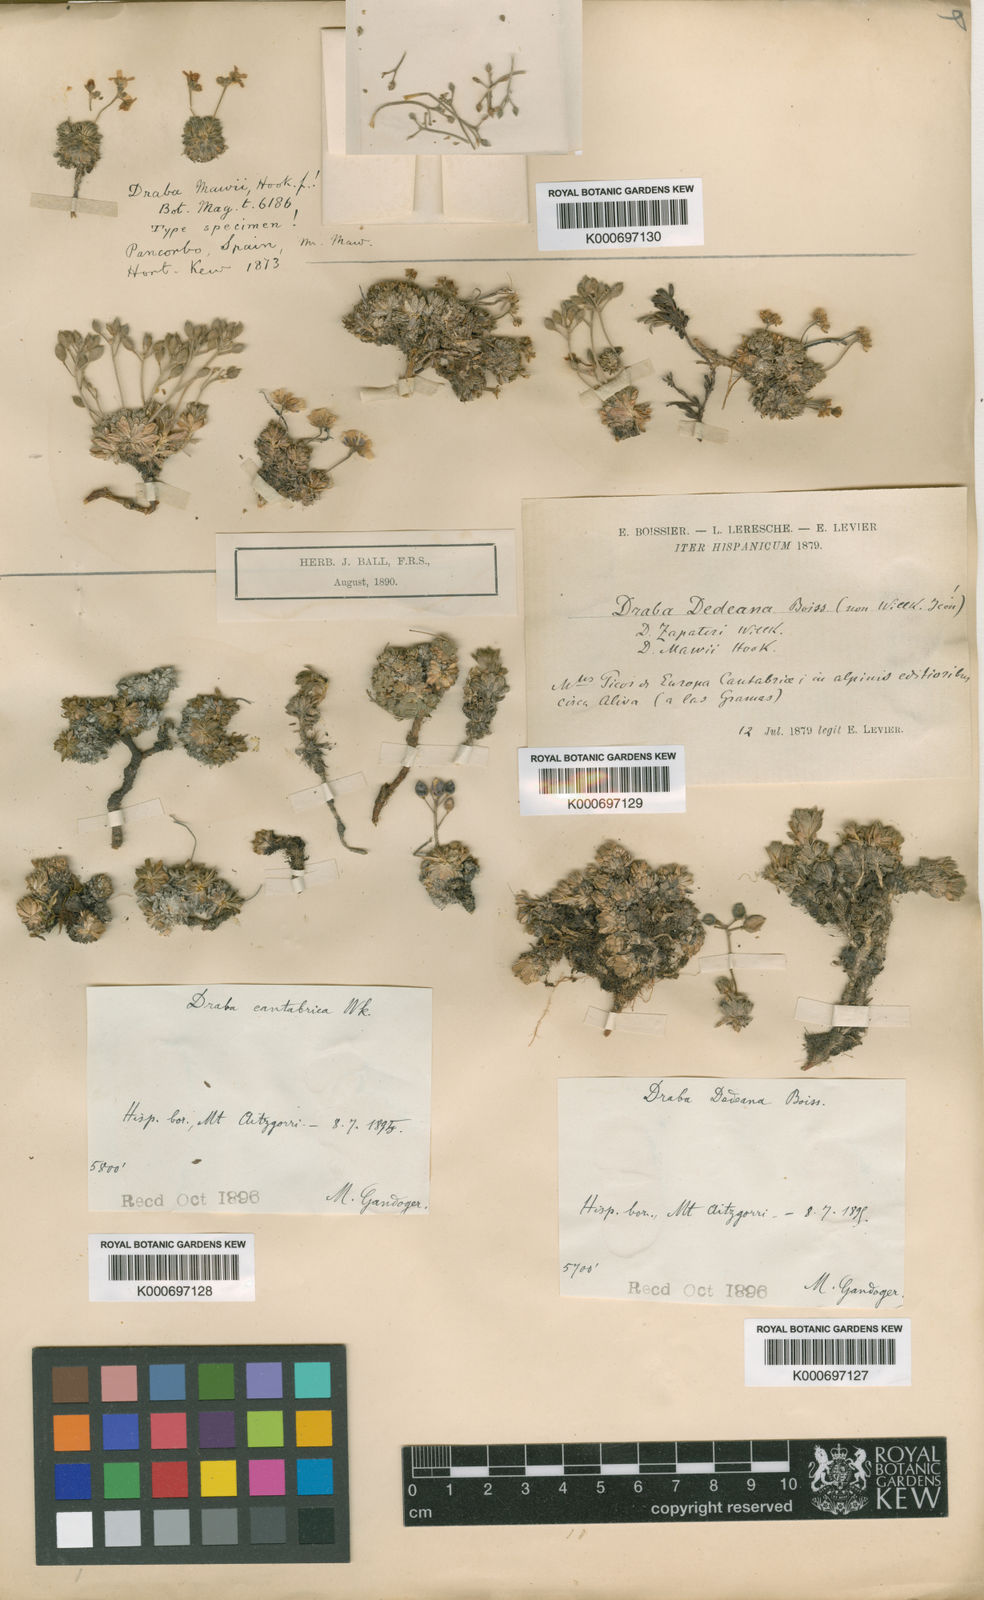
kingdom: Plantae
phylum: Tracheophyta
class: Magnoliopsida
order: Brassicales
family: Brassicaceae
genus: Draba
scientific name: Draba loiseleurii
